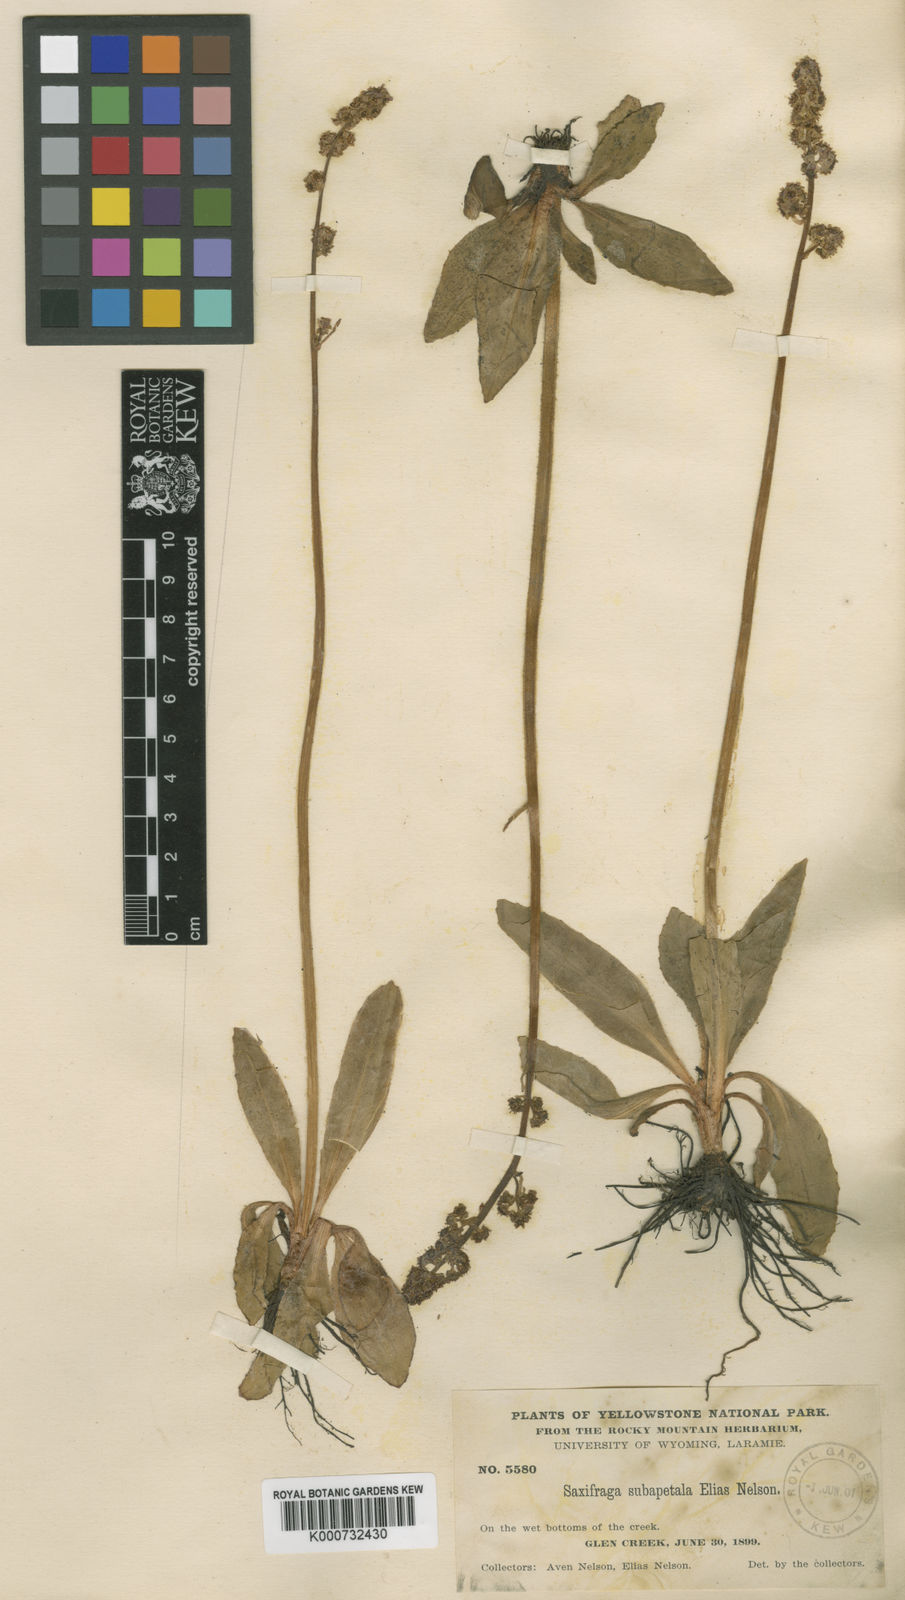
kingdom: Plantae
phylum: Tracheophyta
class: Magnoliopsida
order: Saxifragales
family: Saxifragaceae
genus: Micranthes
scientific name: Micranthes oregana
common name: Bog saxifrage
